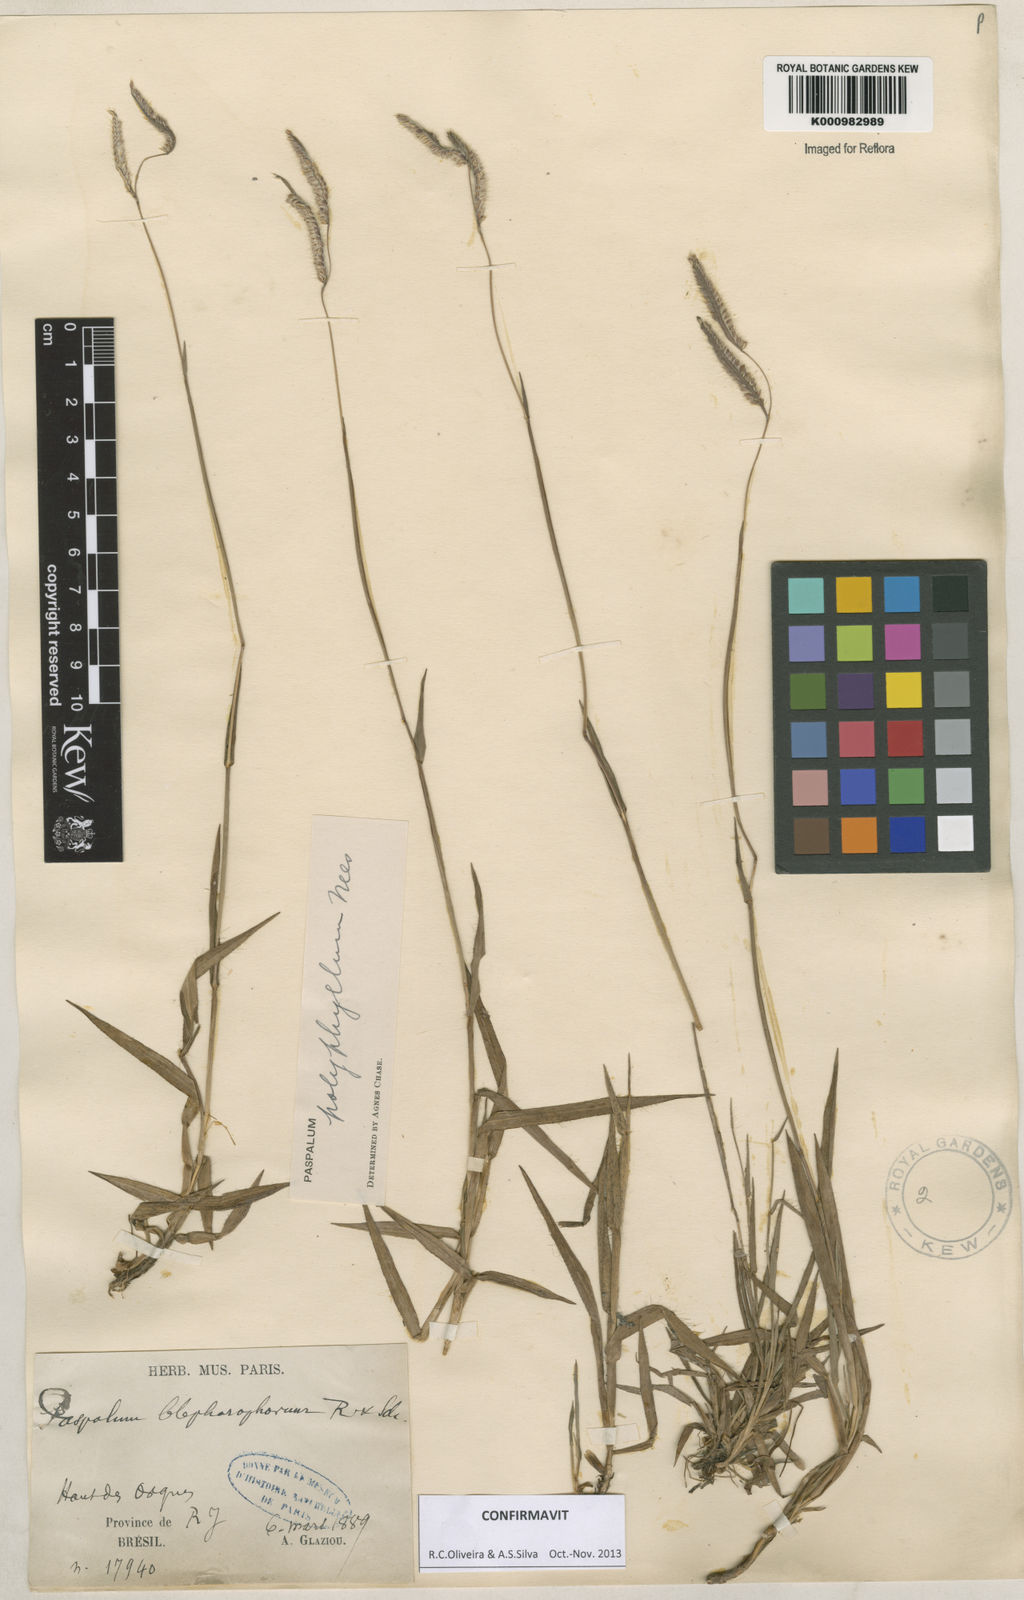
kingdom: Plantae
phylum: Tracheophyta
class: Liliopsida
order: Poales
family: Poaceae
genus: Paspalum
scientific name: Paspalum
